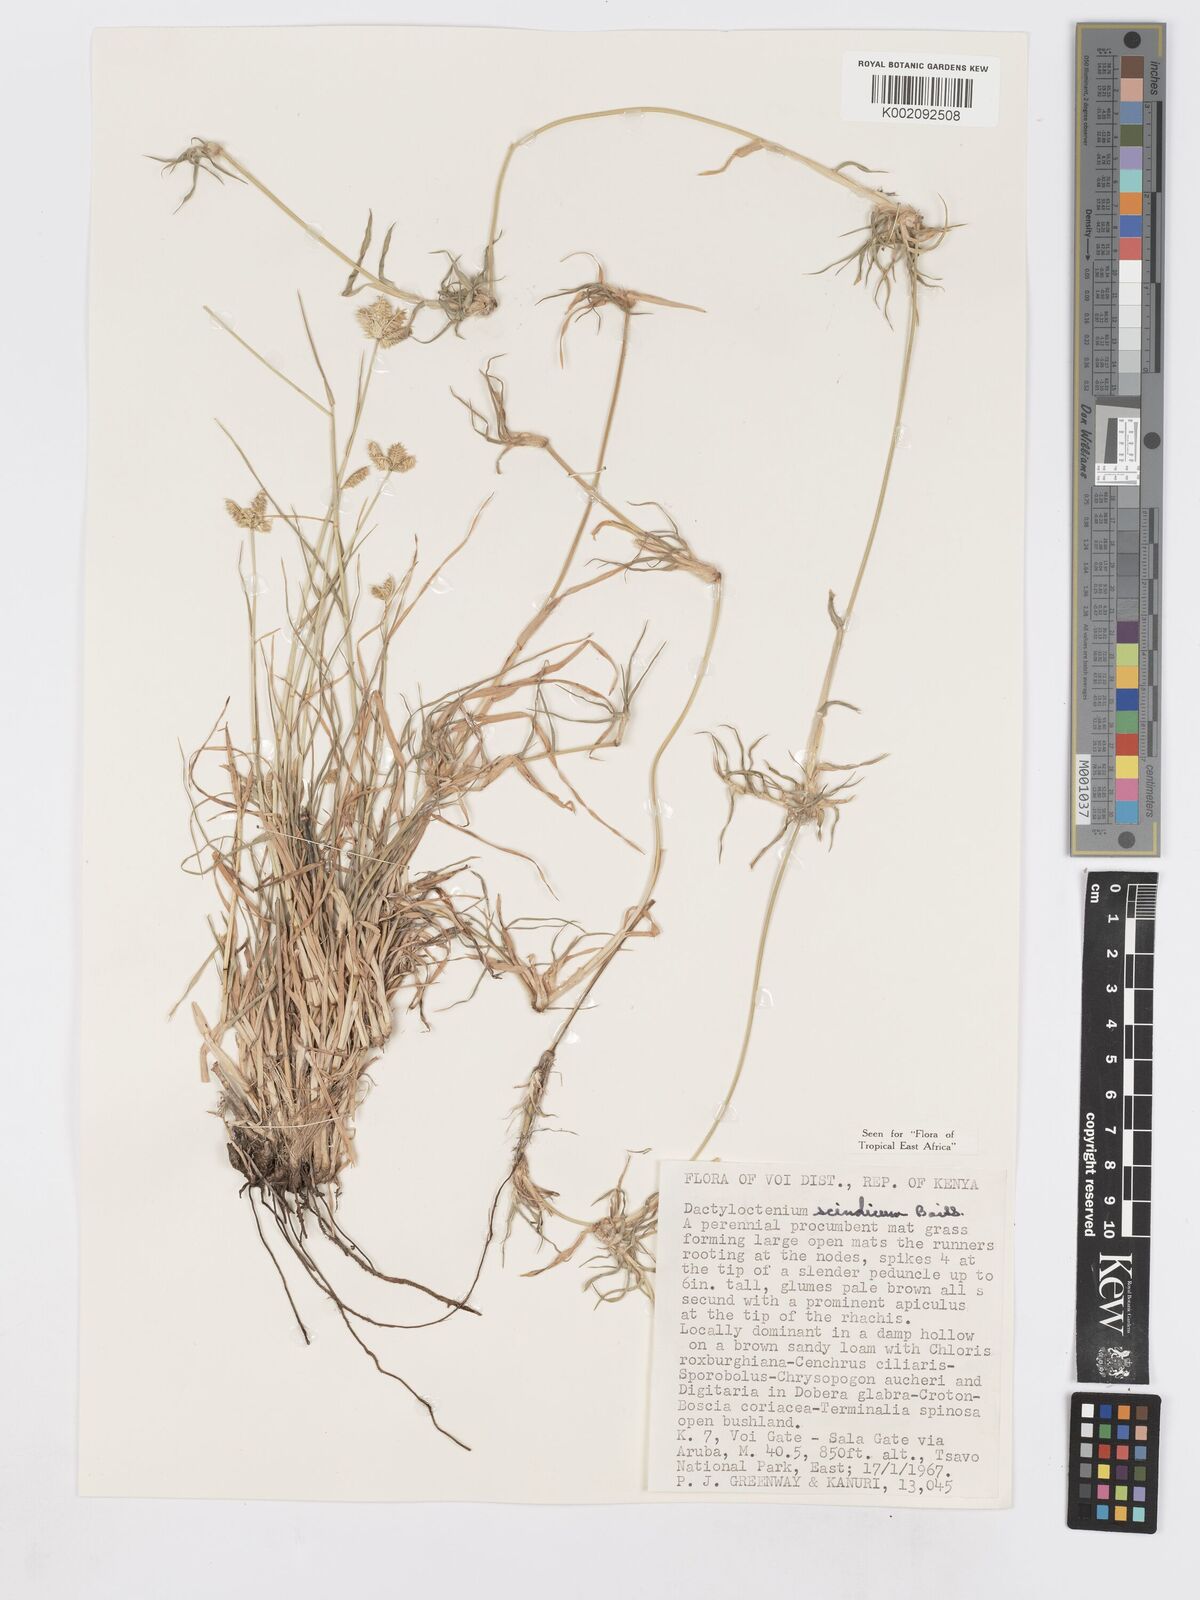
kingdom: Plantae
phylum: Tracheophyta
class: Liliopsida
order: Poales
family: Poaceae
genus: Dactyloctenium
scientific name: Dactyloctenium scindicum
